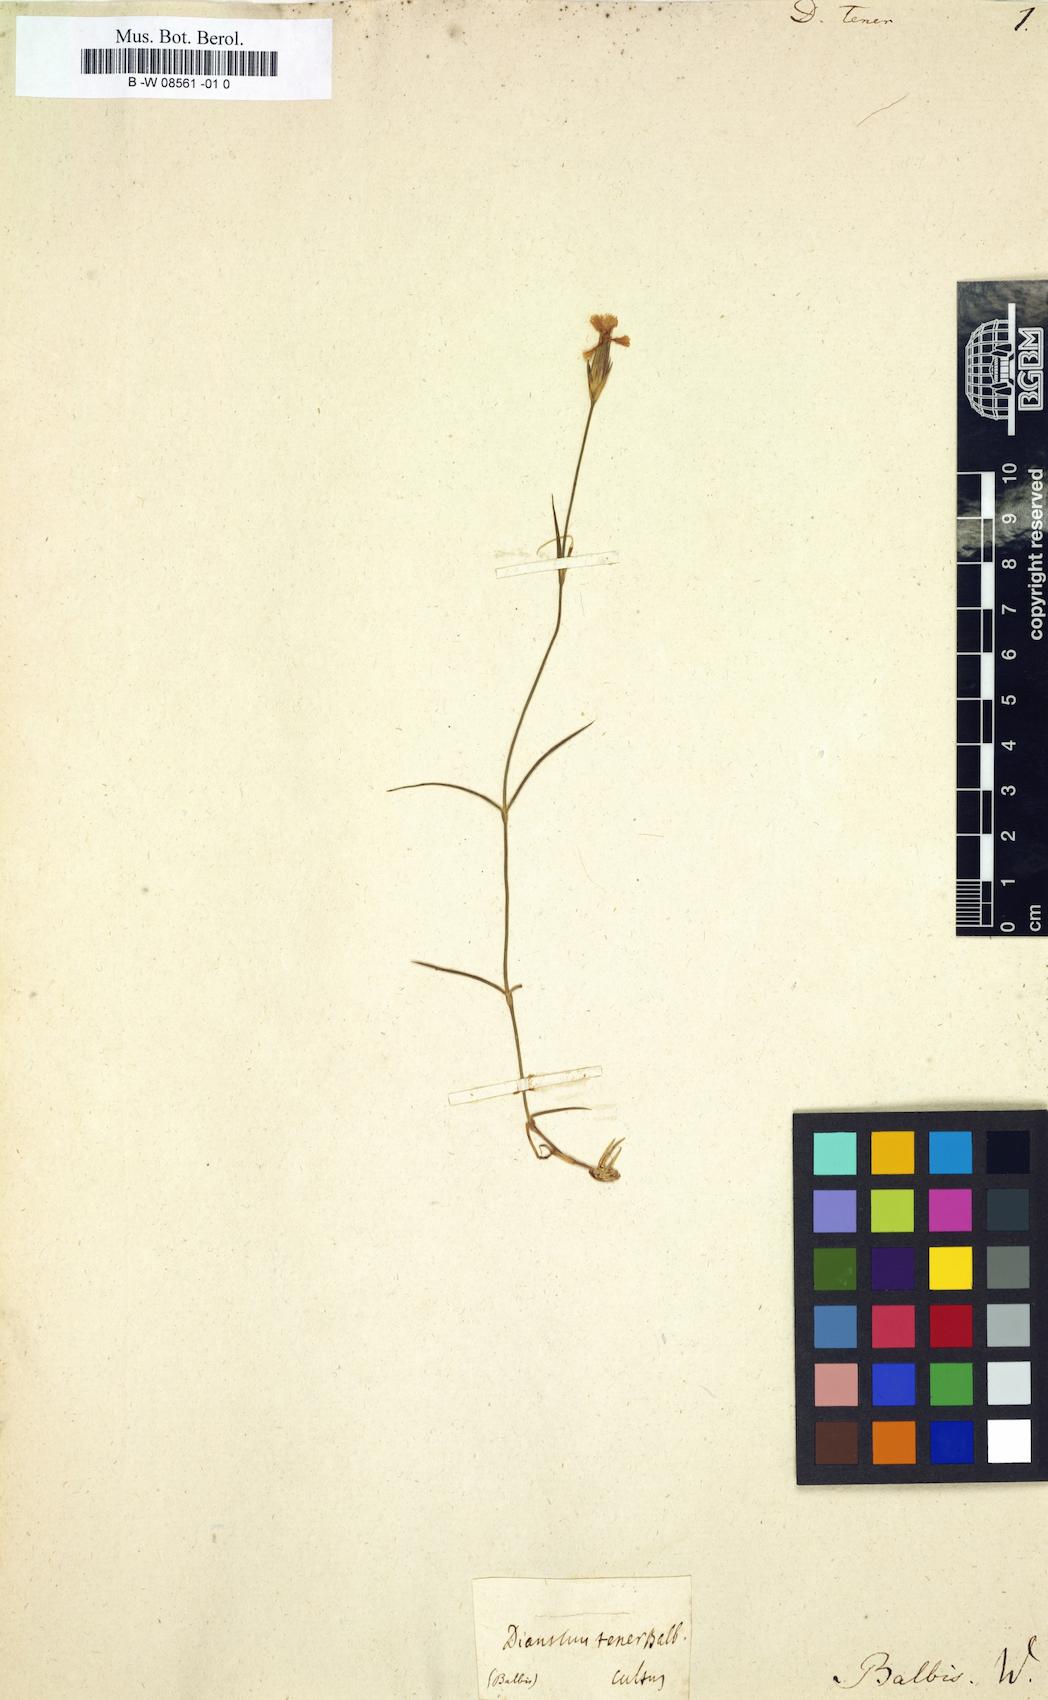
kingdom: Plantae
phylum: Tracheophyta
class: Magnoliopsida
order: Caryophyllales
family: Caryophyllaceae
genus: Dianthus
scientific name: Dianthus furcatus
